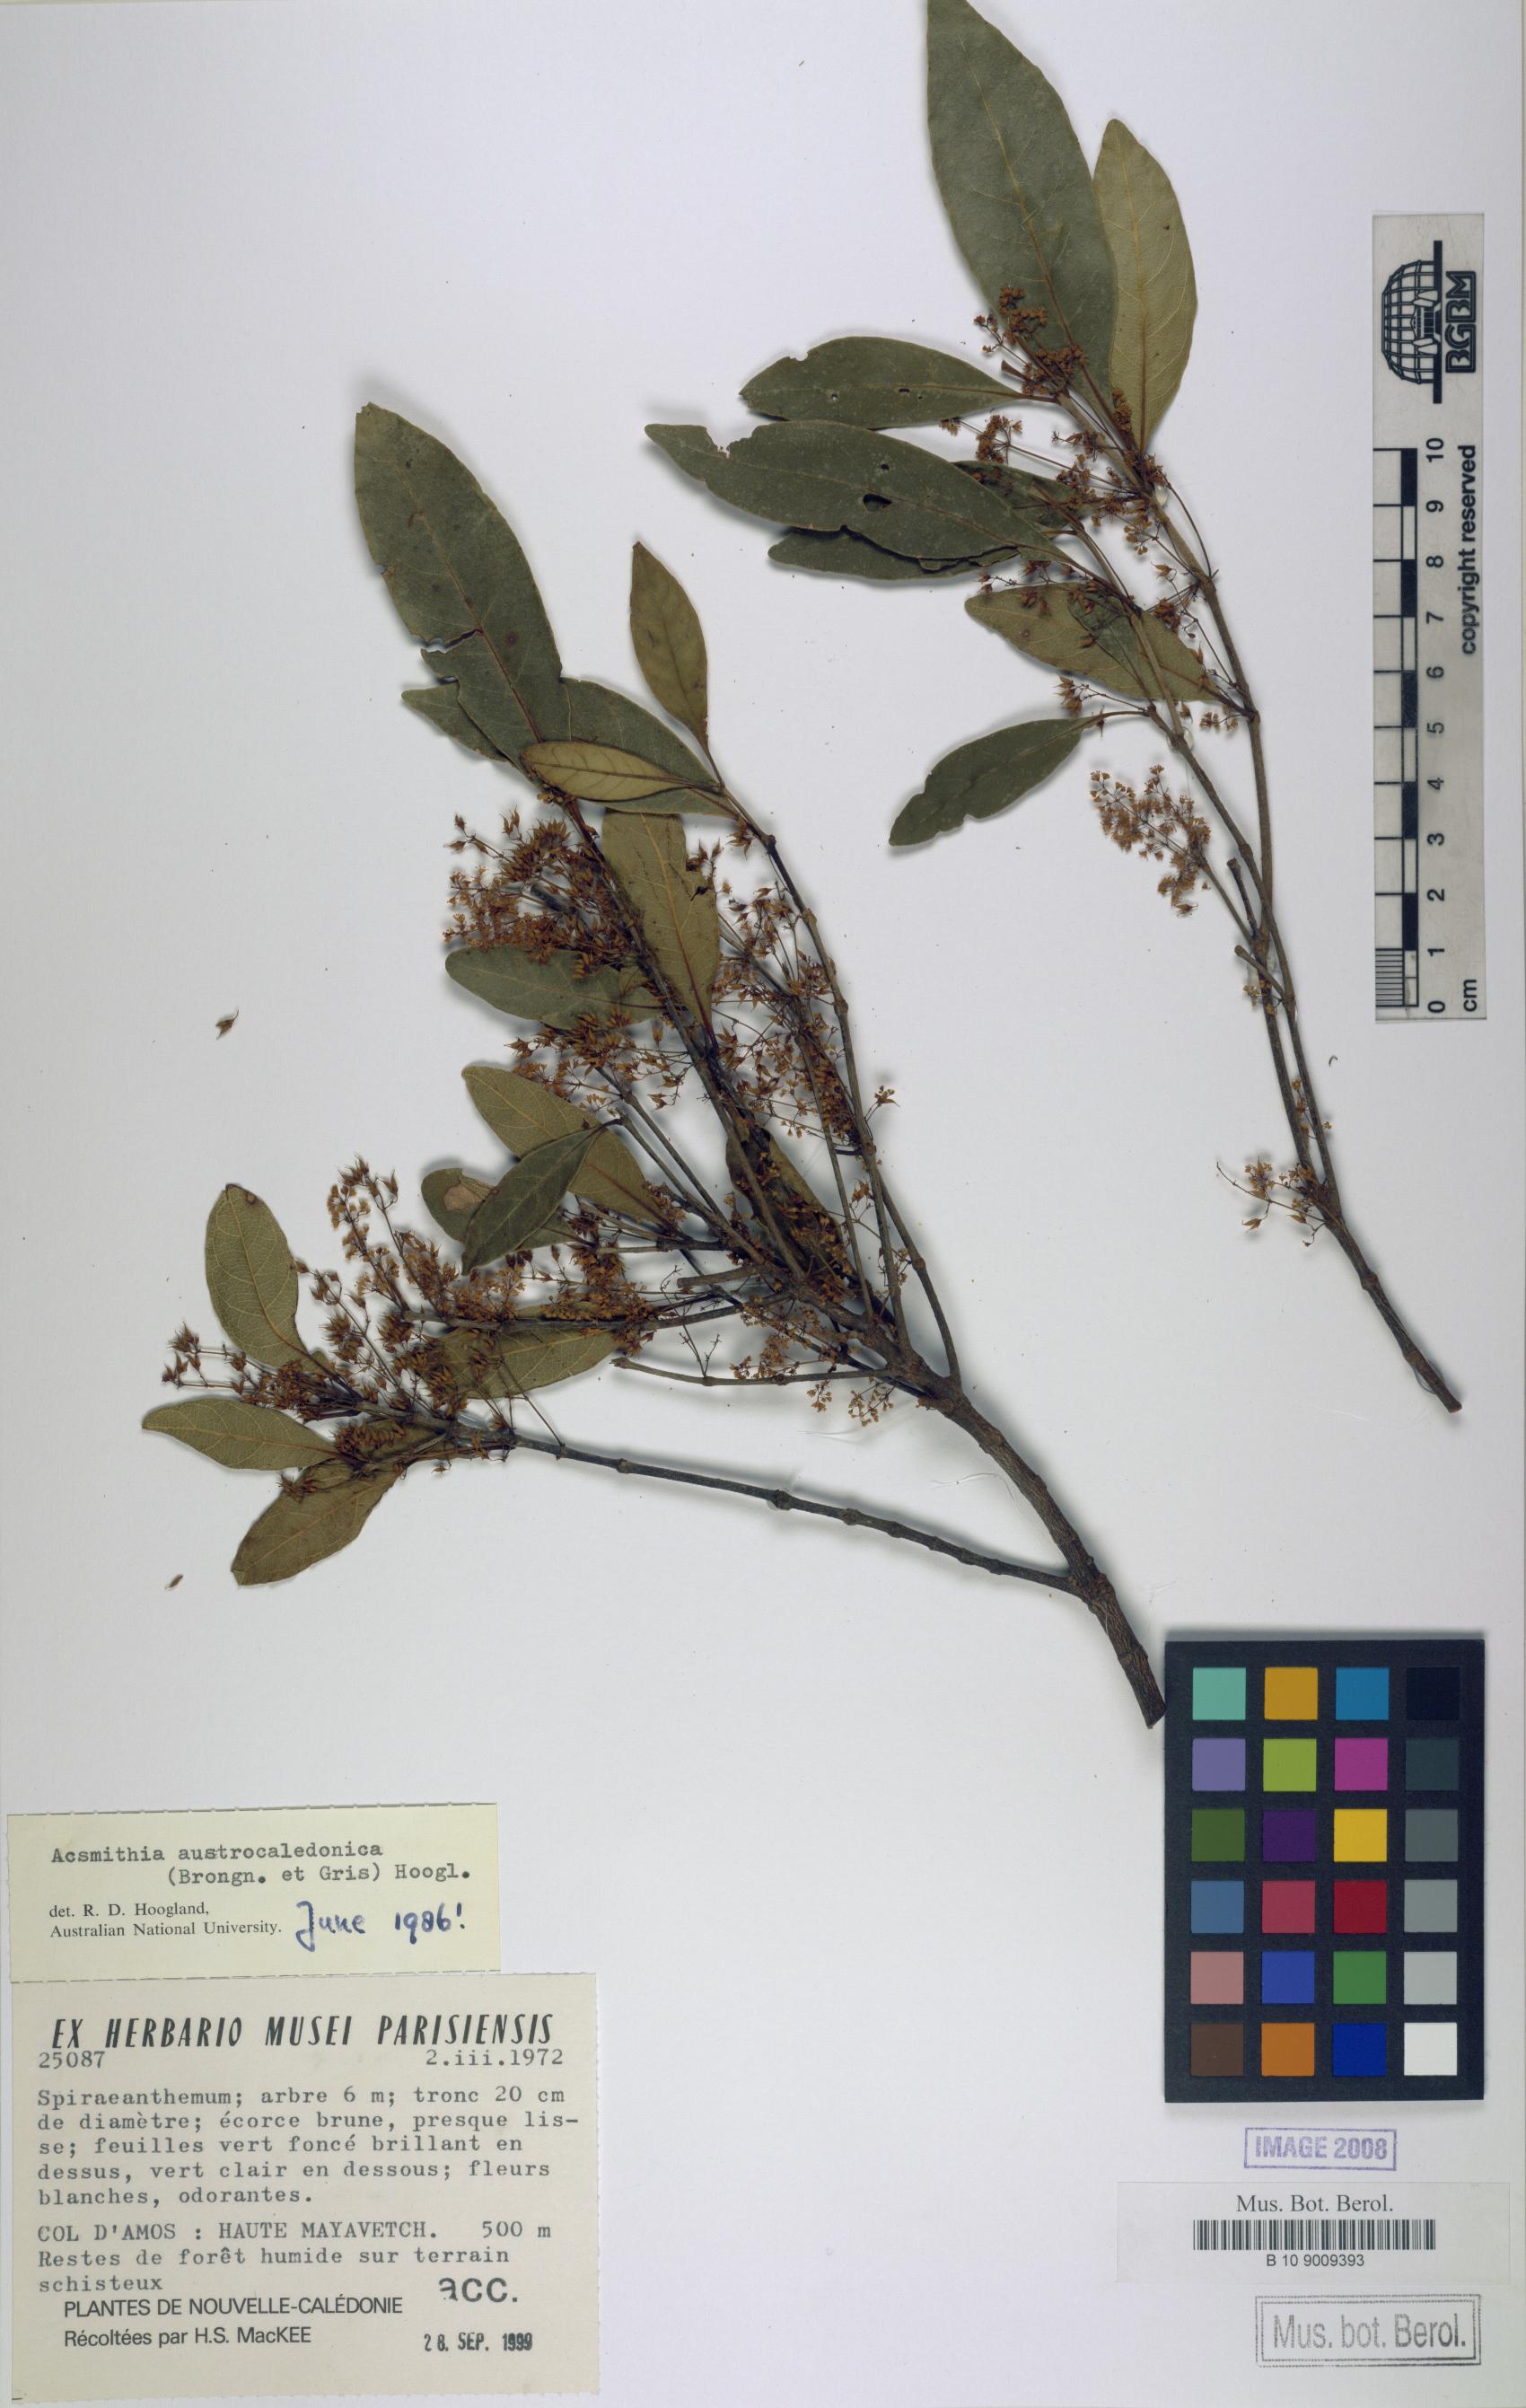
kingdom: Plantae
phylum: Tracheophyta
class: Magnoliopsida
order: Oxalidales
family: Cunoniaceae
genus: Spiraeanthemum
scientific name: Spiraeanthemum densiflorum
